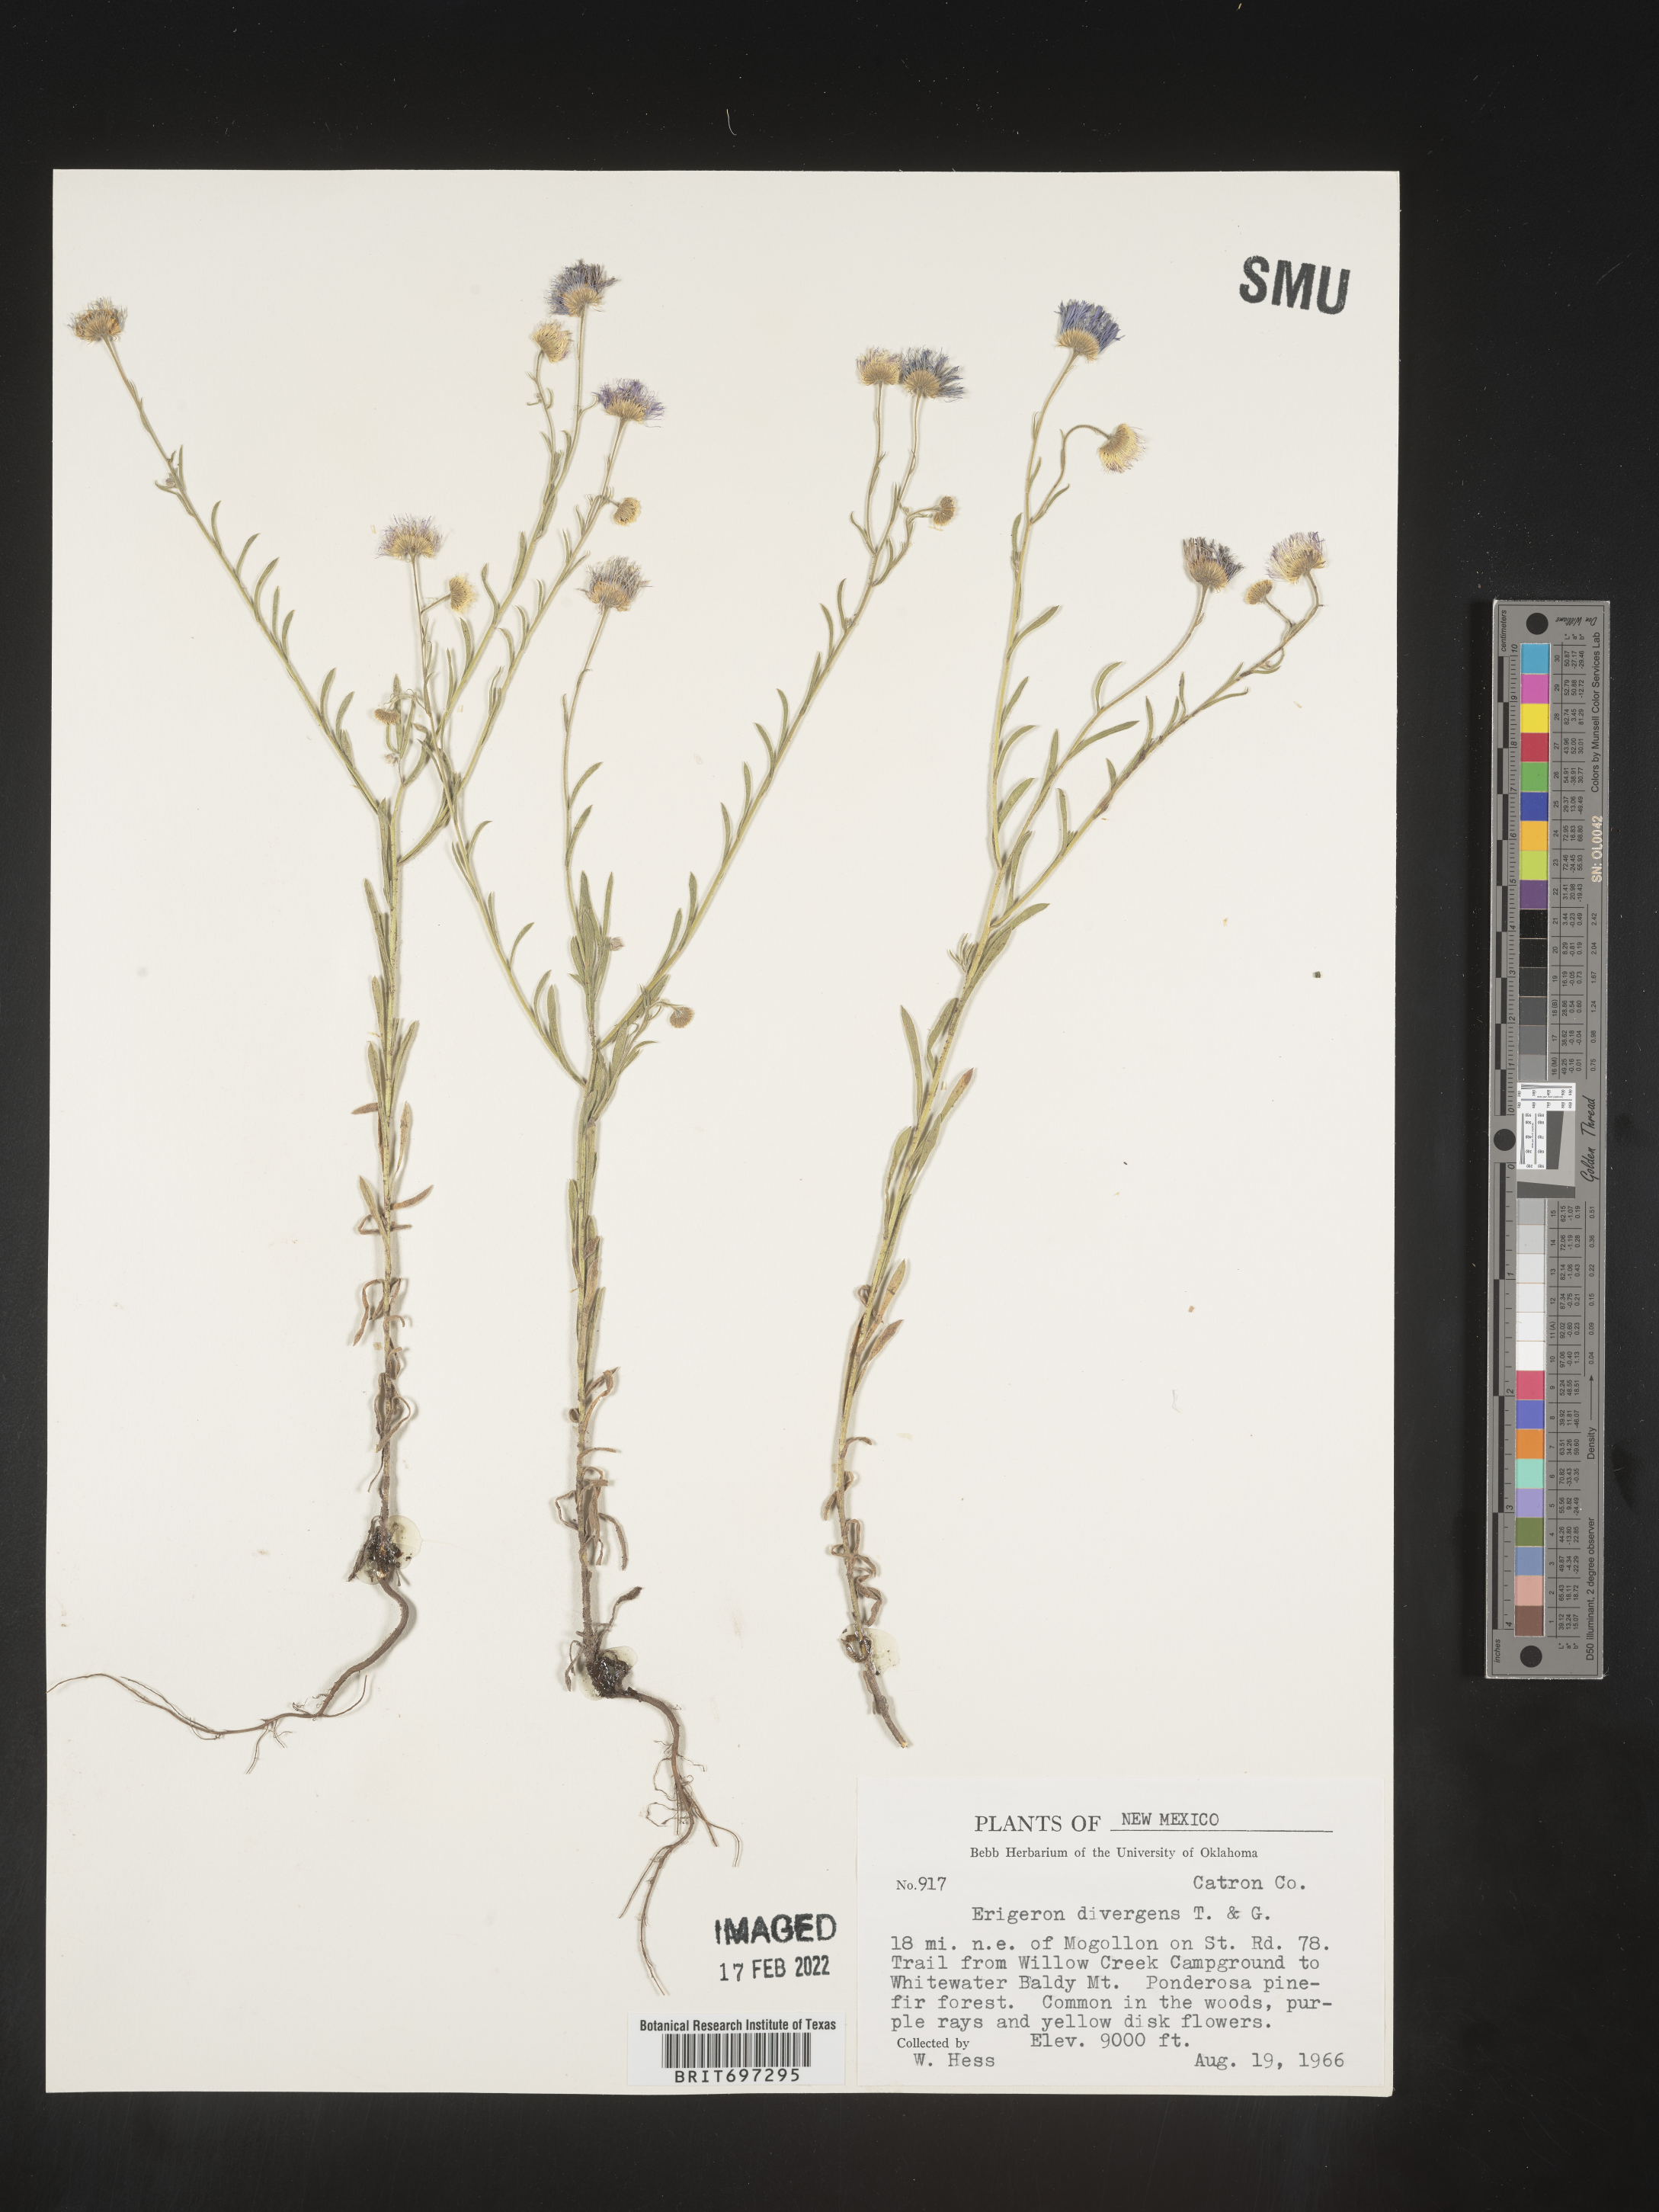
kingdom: Plantae
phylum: Tracheophyta
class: Magnoliopsida
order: Asterales
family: Asteraceae
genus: Erigeron
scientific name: Erigeron divergens
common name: Diffuse fleabane
